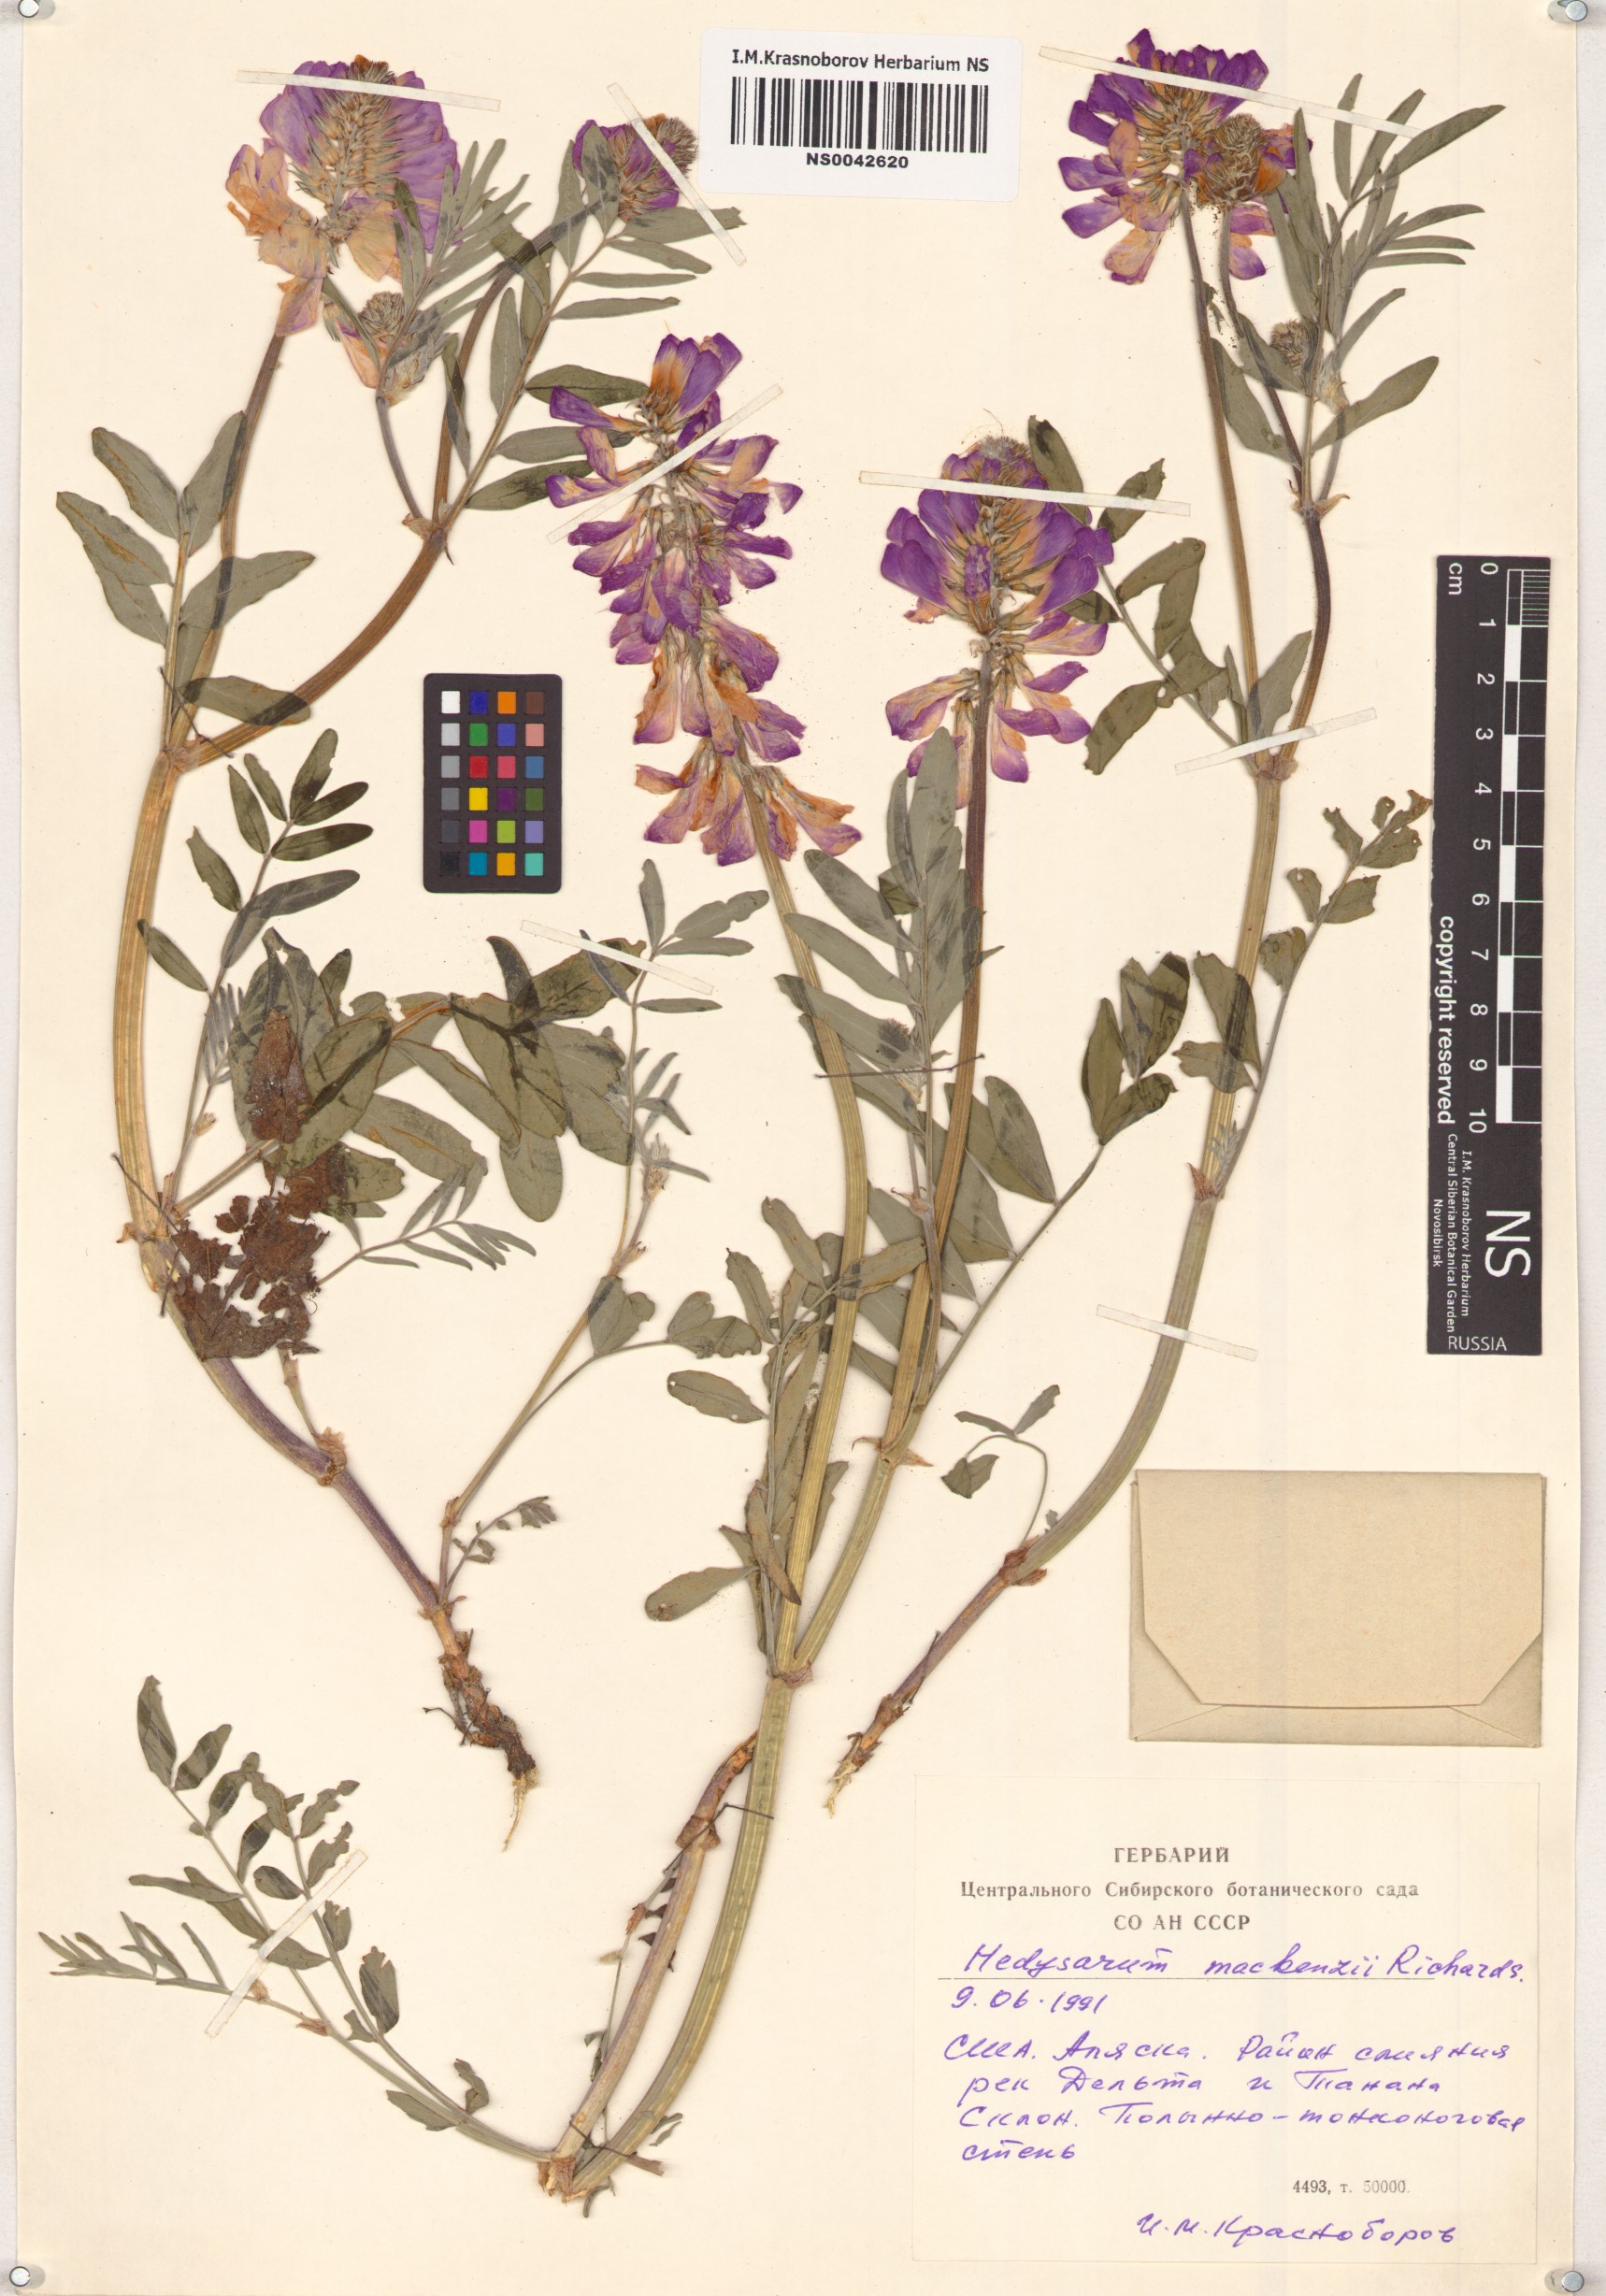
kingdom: Plantae
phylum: Tracheophyta
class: Magnoliopsida
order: Fabales
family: Fabaceae
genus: Hedysarum
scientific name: Hedysarum boreale
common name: Northern sweet-vetch
